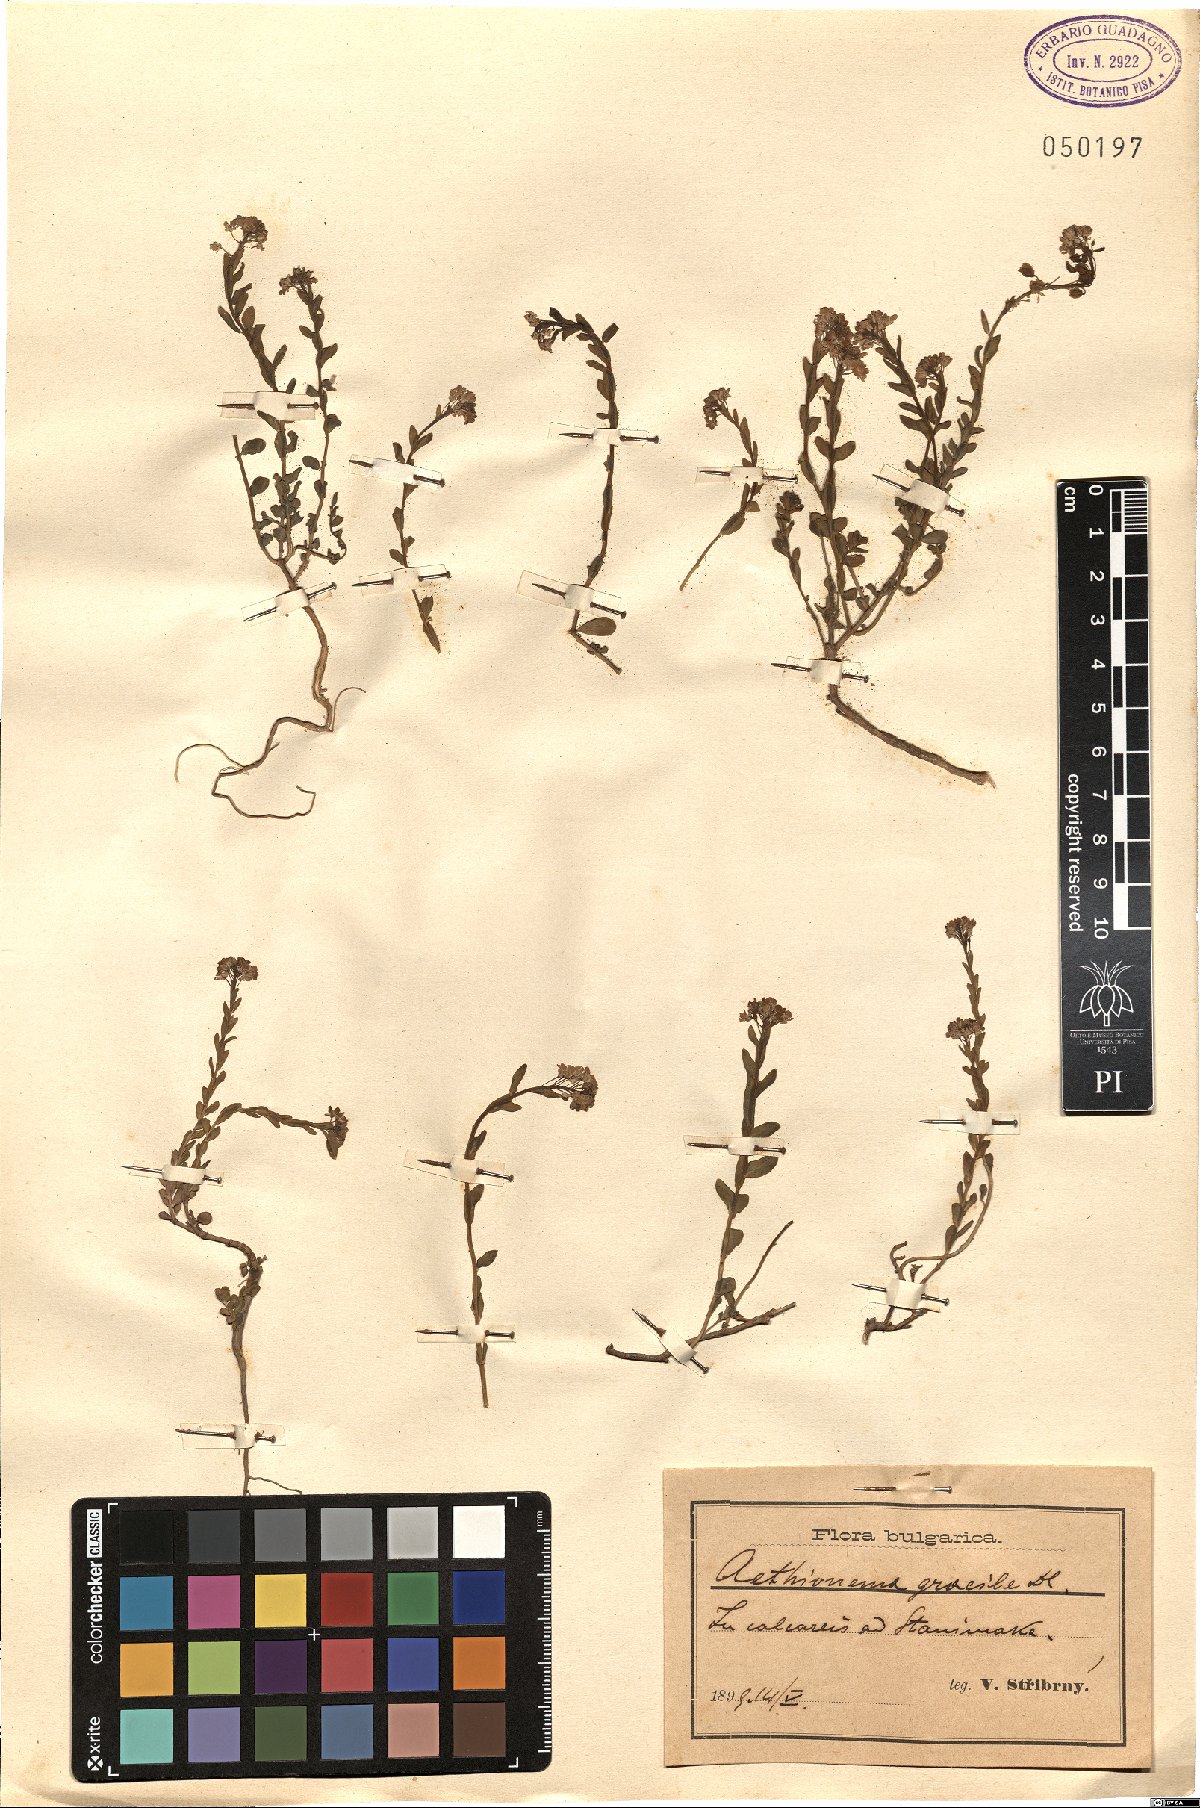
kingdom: Plantae
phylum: Tracheophyta
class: Magnoliopsida
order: Brassicales
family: Brassicaceae
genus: Aethionema
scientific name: Aethionema saxatile
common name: Burnt candytuft
